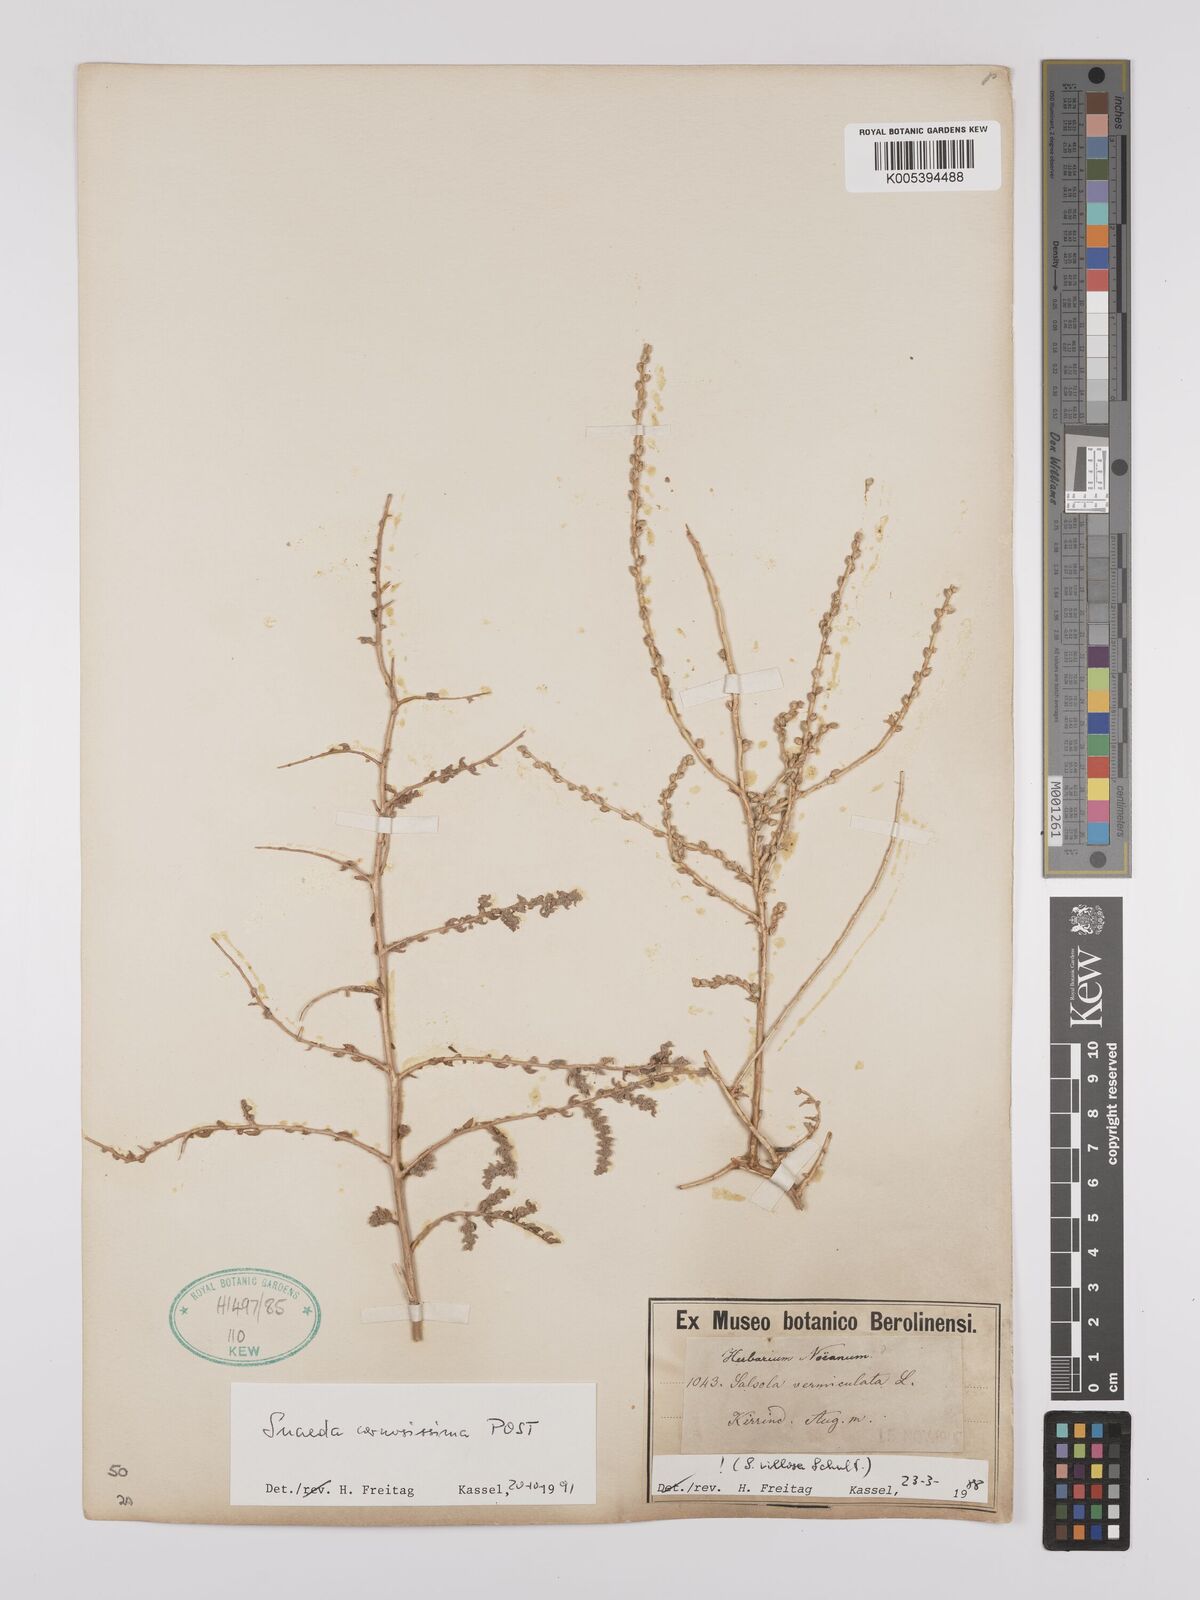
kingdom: Plantae
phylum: Tracheophyta
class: Magnoliopsida
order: Caryophyllales
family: Amaranthaceae
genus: Suaeda
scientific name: Suaeda carnosissima
